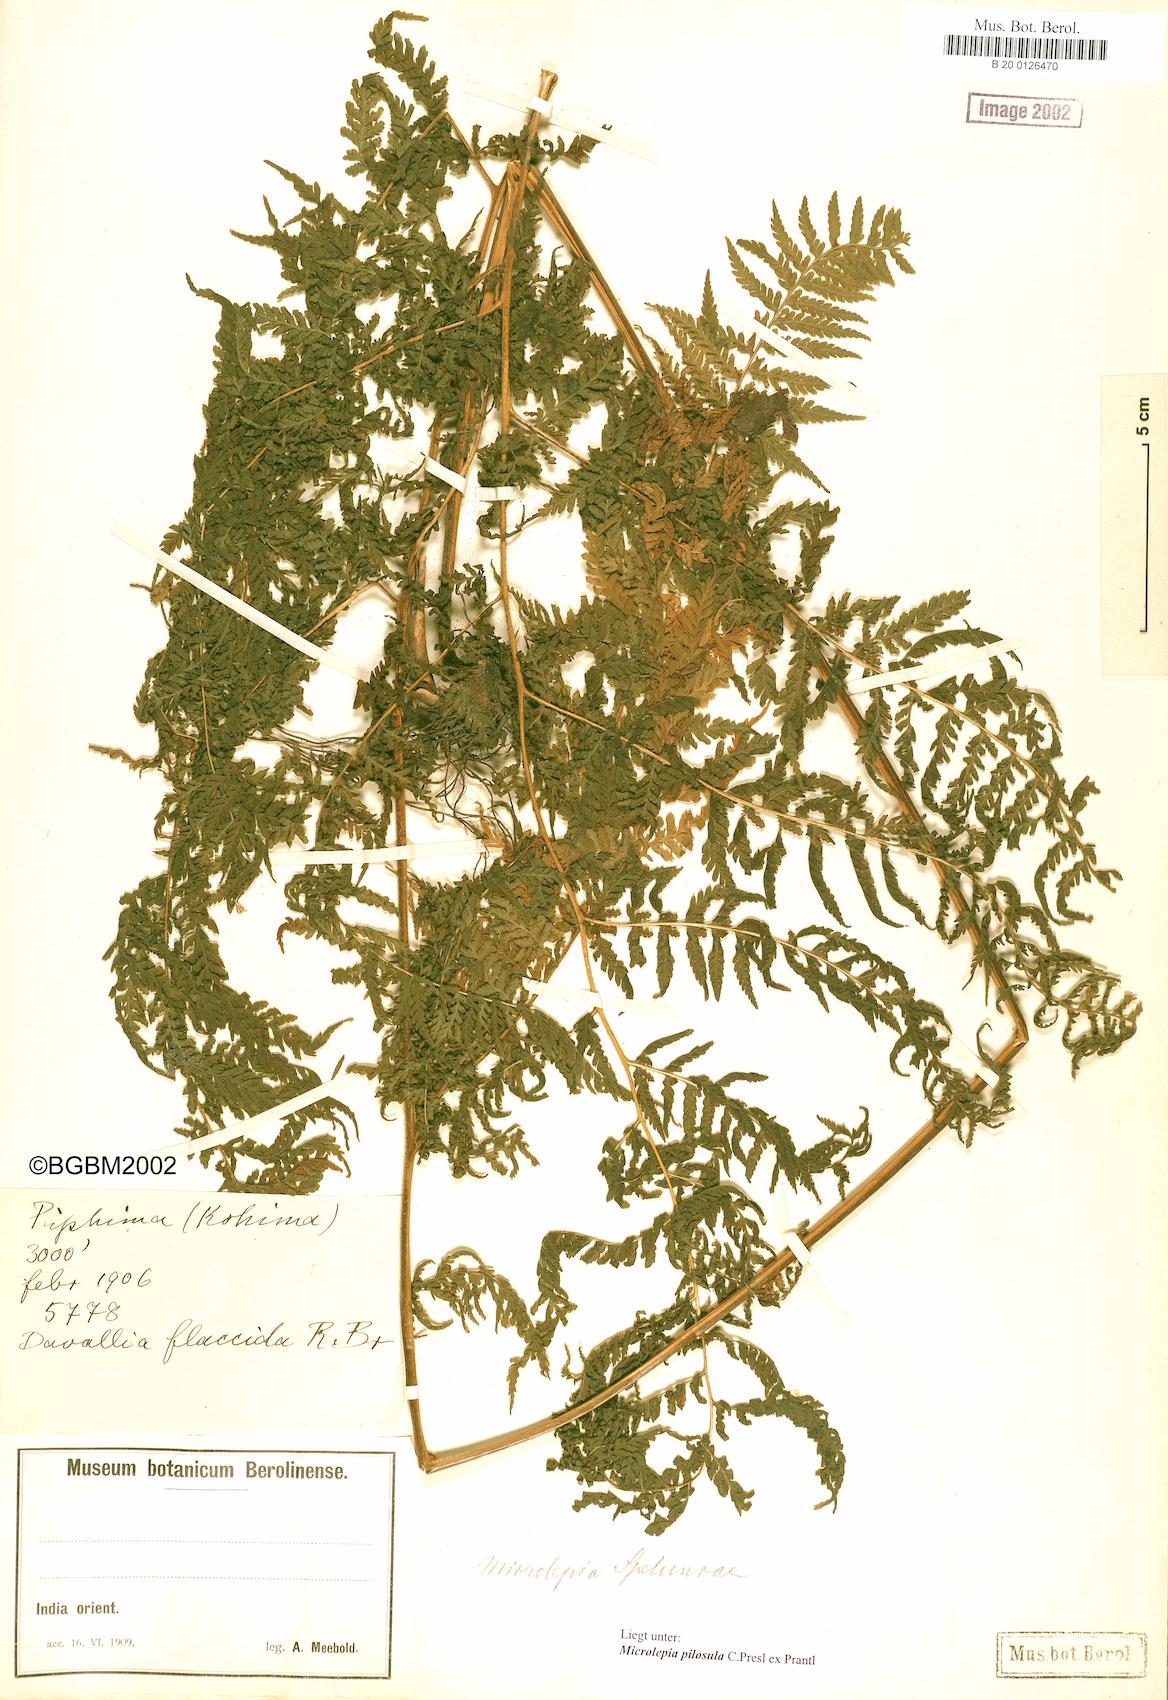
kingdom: Plantae
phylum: Tracheophyta
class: Polypodiopsida
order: Polypodiales
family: Dennstaedtiaceae
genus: Microlepia
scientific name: Microlepia speluncae
